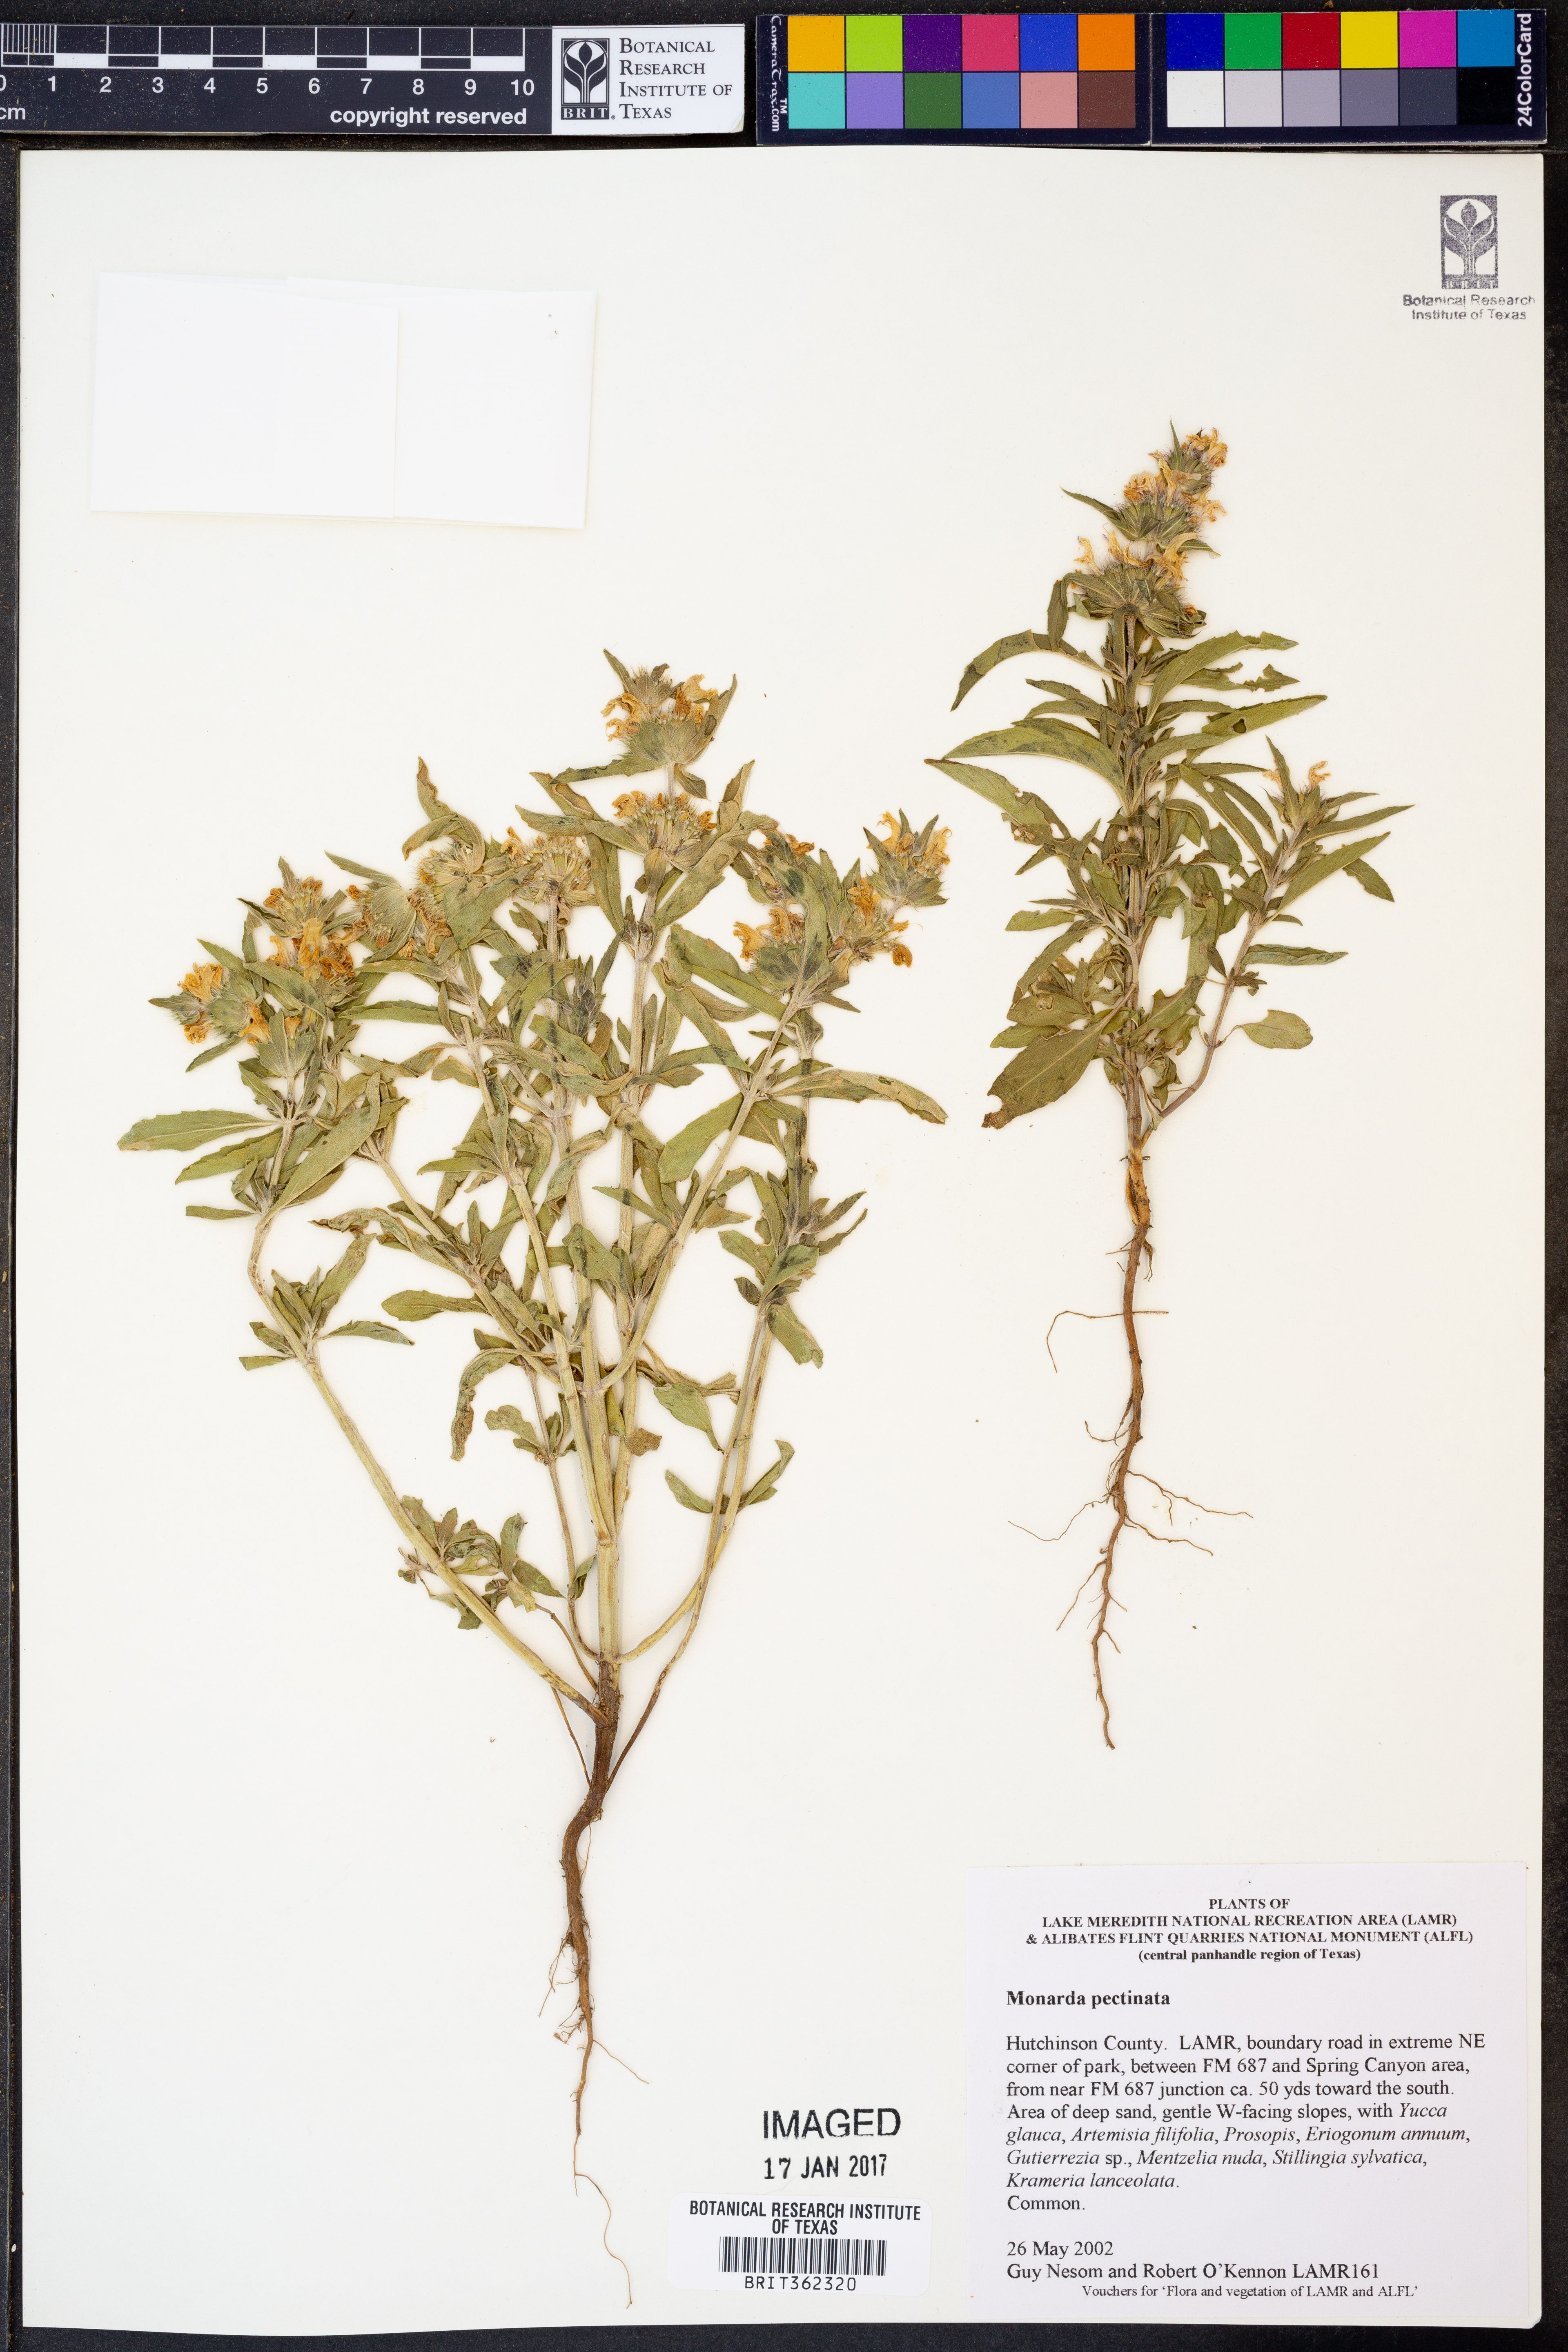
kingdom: Plantae
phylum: Tracheophyta
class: Magnoliopsida
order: Lamiales
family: Lamiaceae
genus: Monarda
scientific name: Monarda pectinata
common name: Plains beebalm
